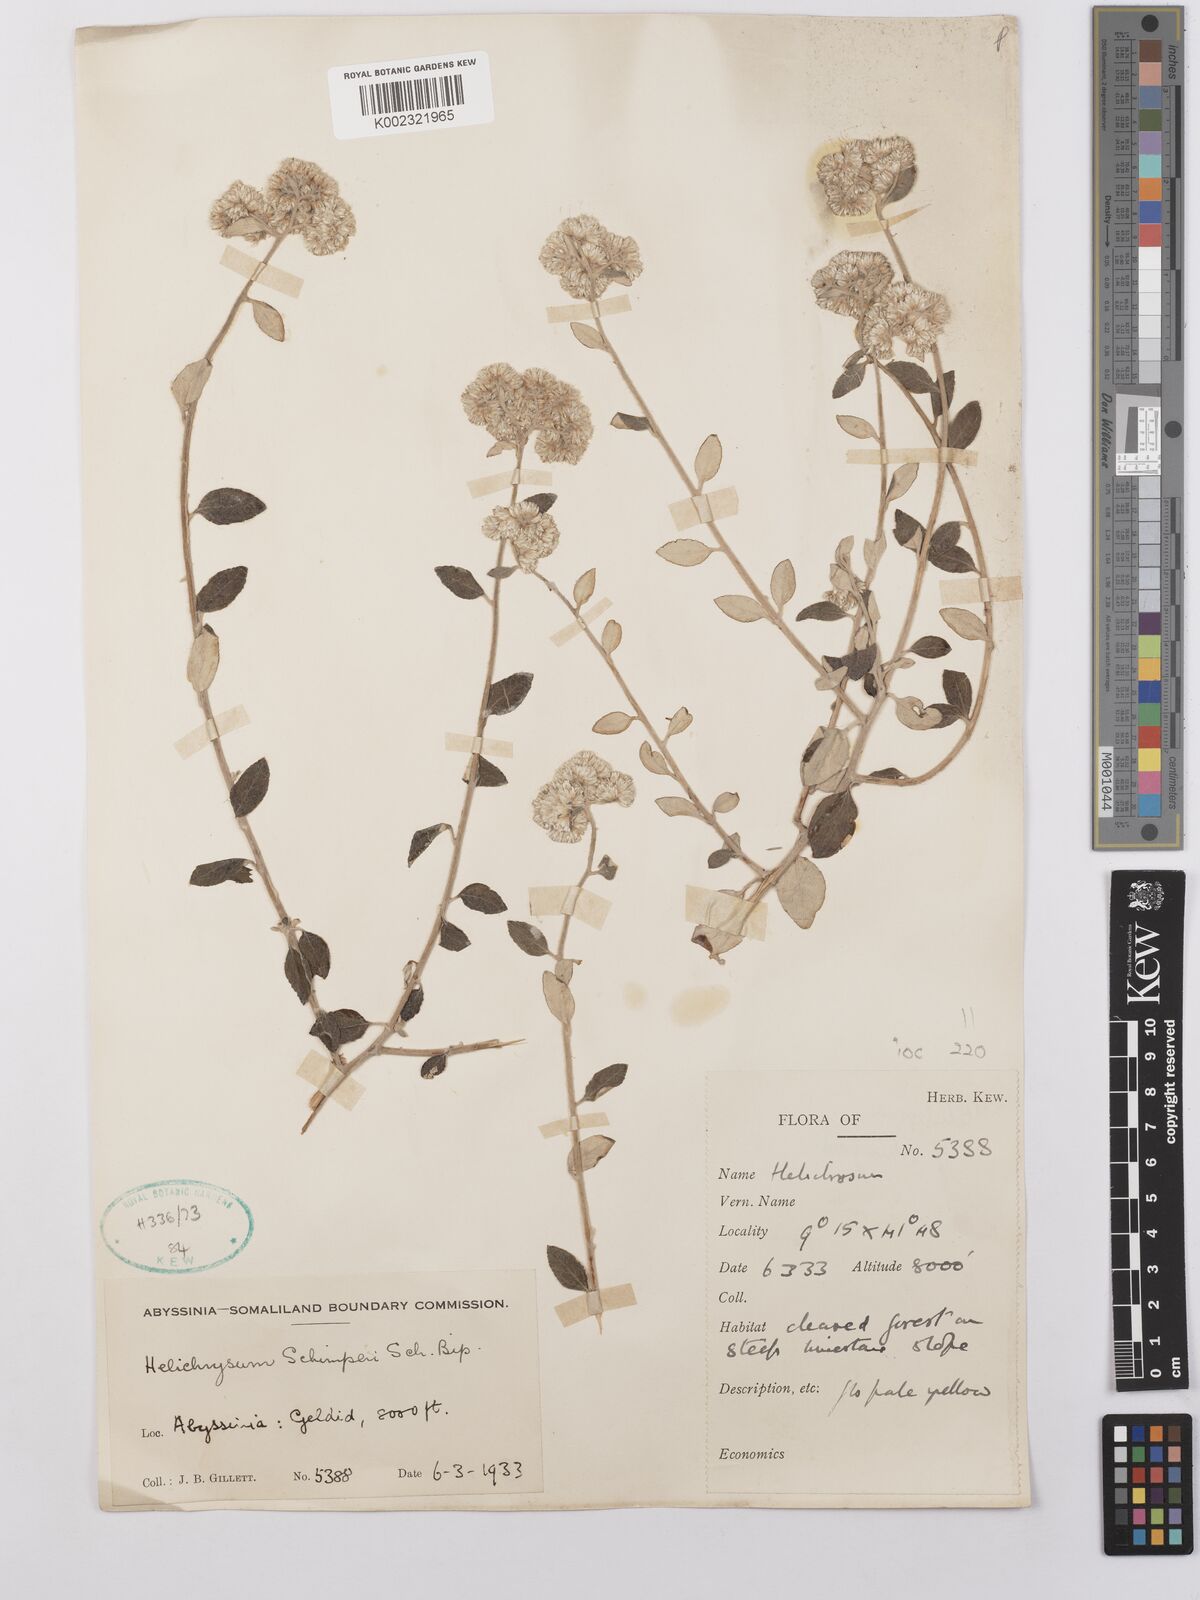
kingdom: Plantae
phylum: Tracheophyta
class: Magnoliopsida
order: Asterales
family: Asteraceae
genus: Helichrysum
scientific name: Helichrysum schimperi
